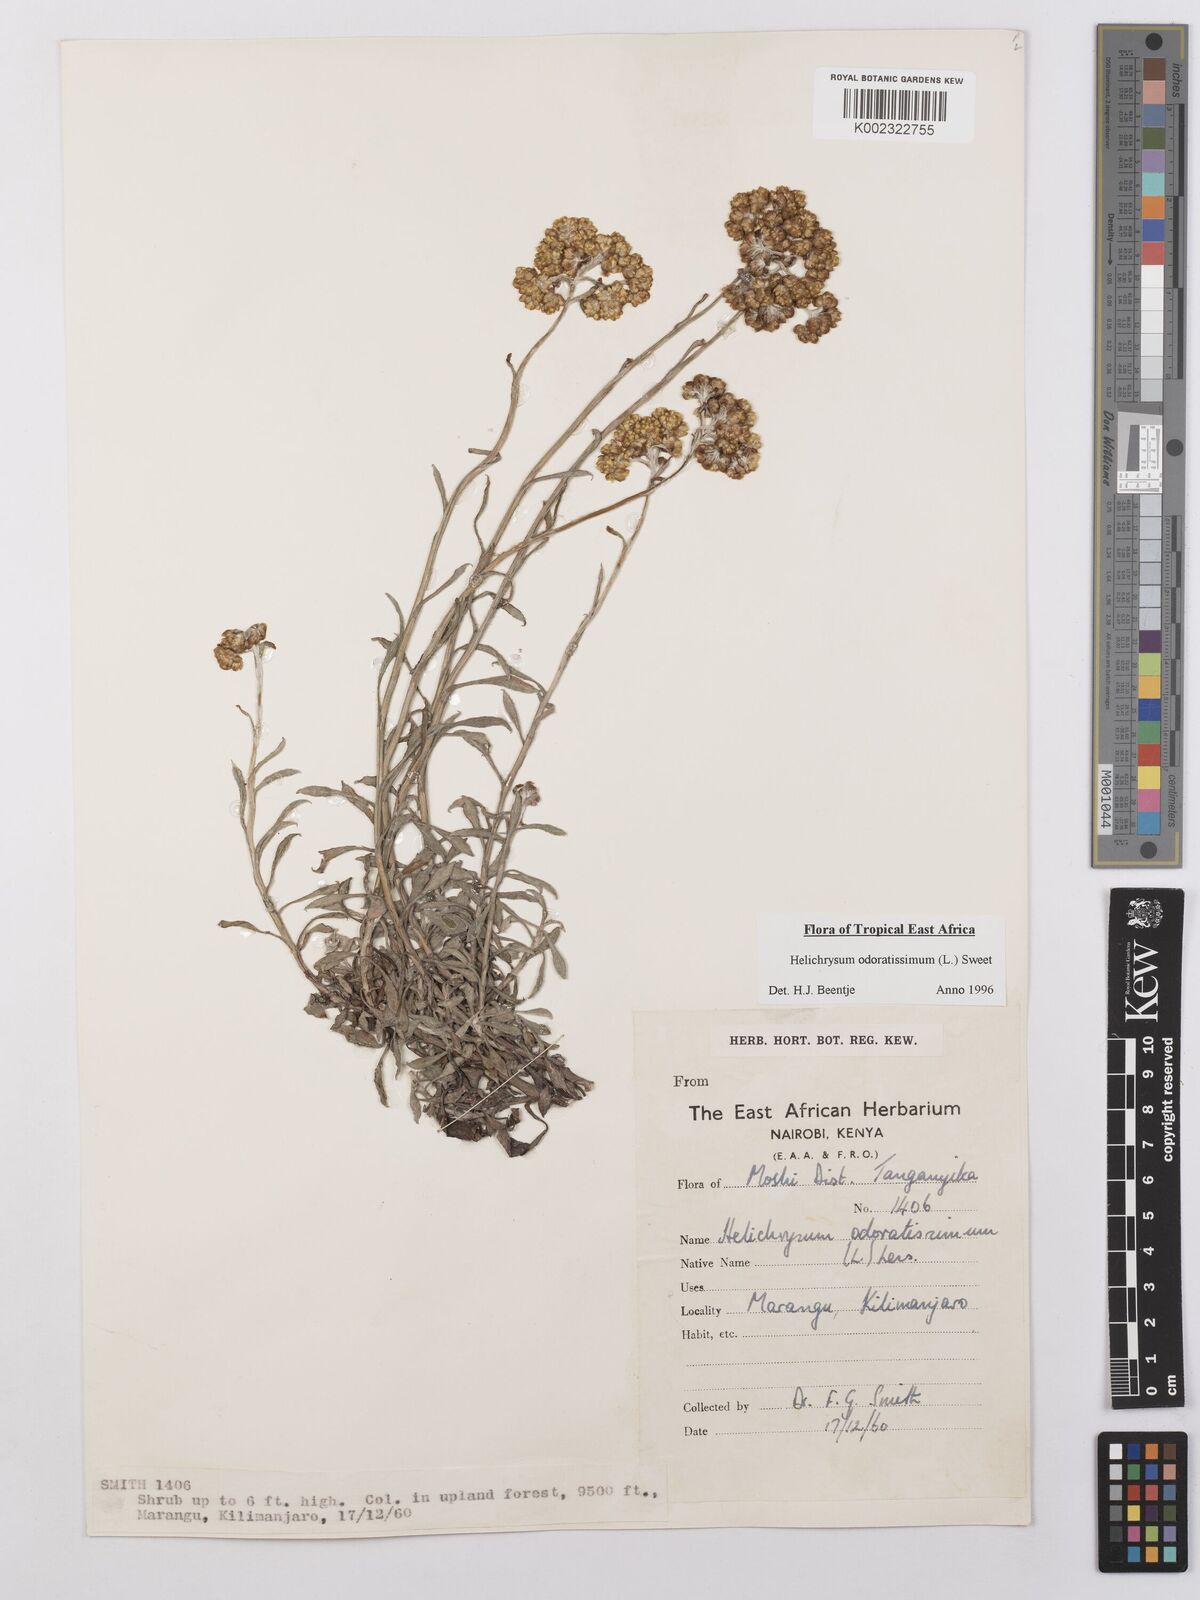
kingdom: Plantae
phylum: Tracheophyta
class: Magnoliopsida
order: Asterales
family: Asteraceae
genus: Helichrysum
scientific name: Helichrysum odoratissimum
